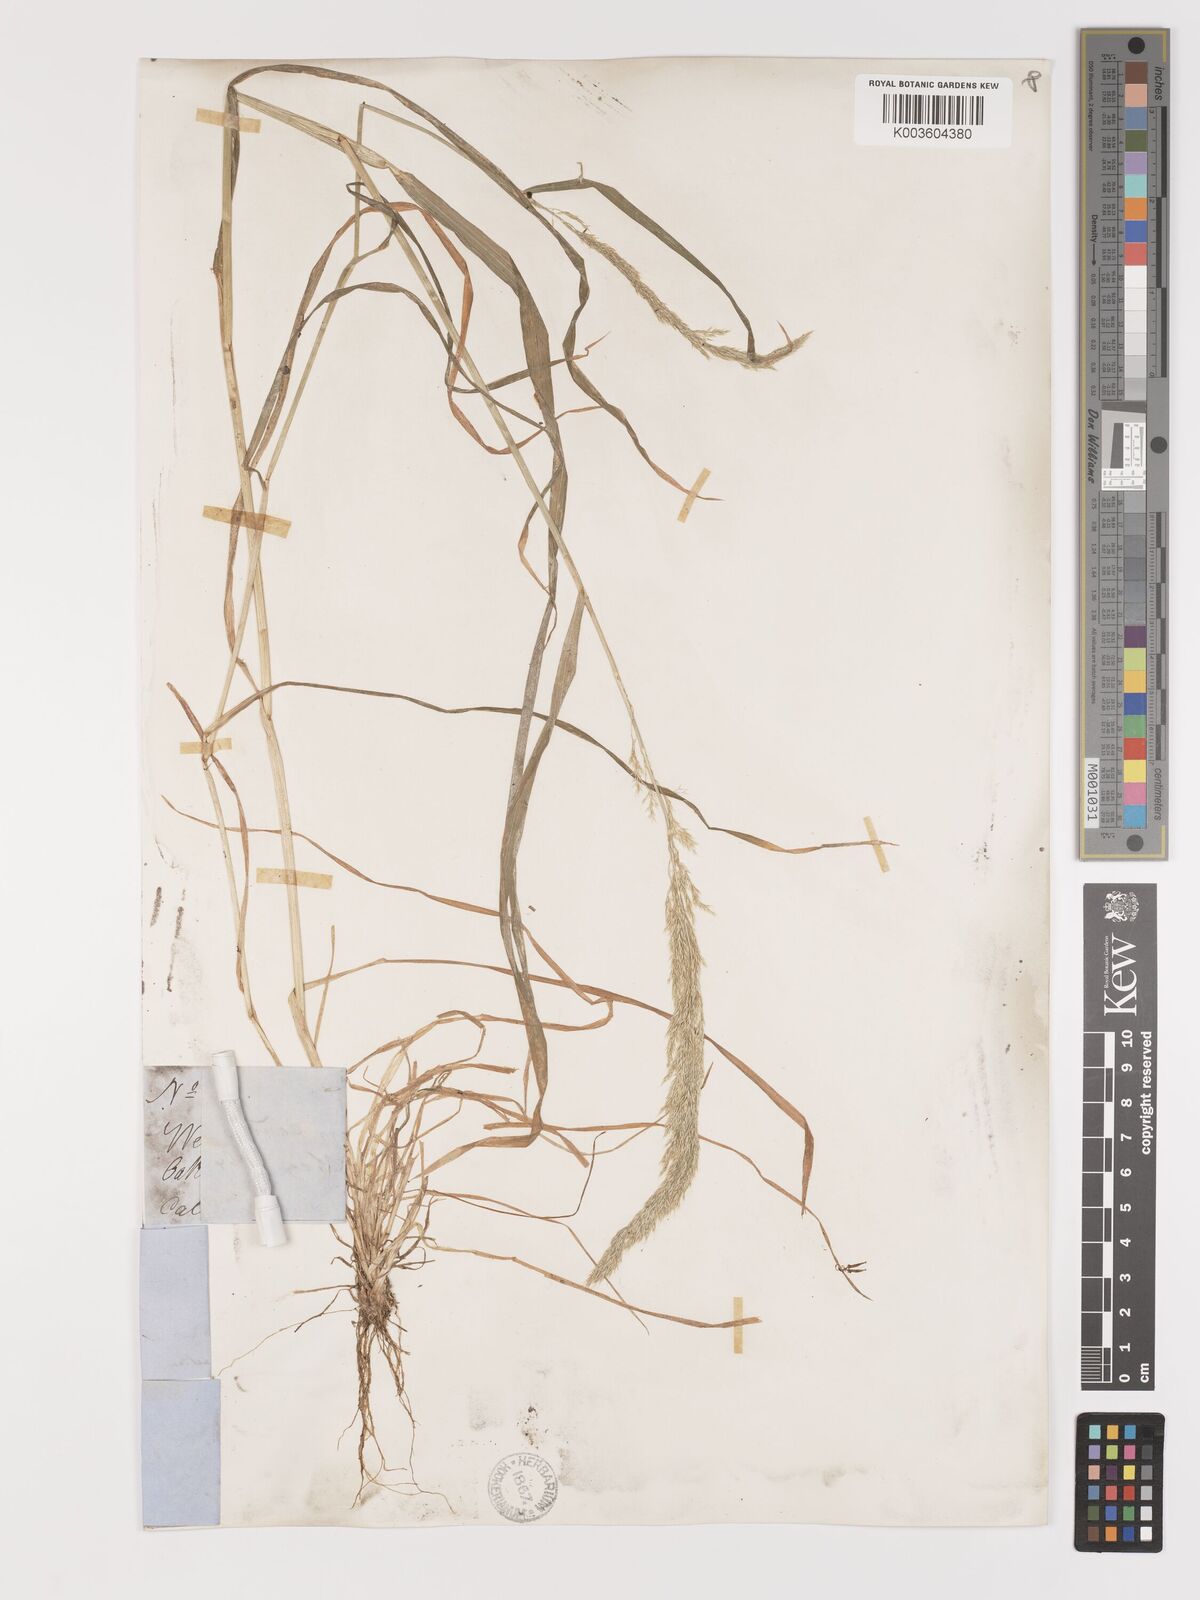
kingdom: Plantae
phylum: Tracheophyta
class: Liliopsida
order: Poales
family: Poaceae
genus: Agrostis
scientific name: Agrostis exarata
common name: Spike bent
